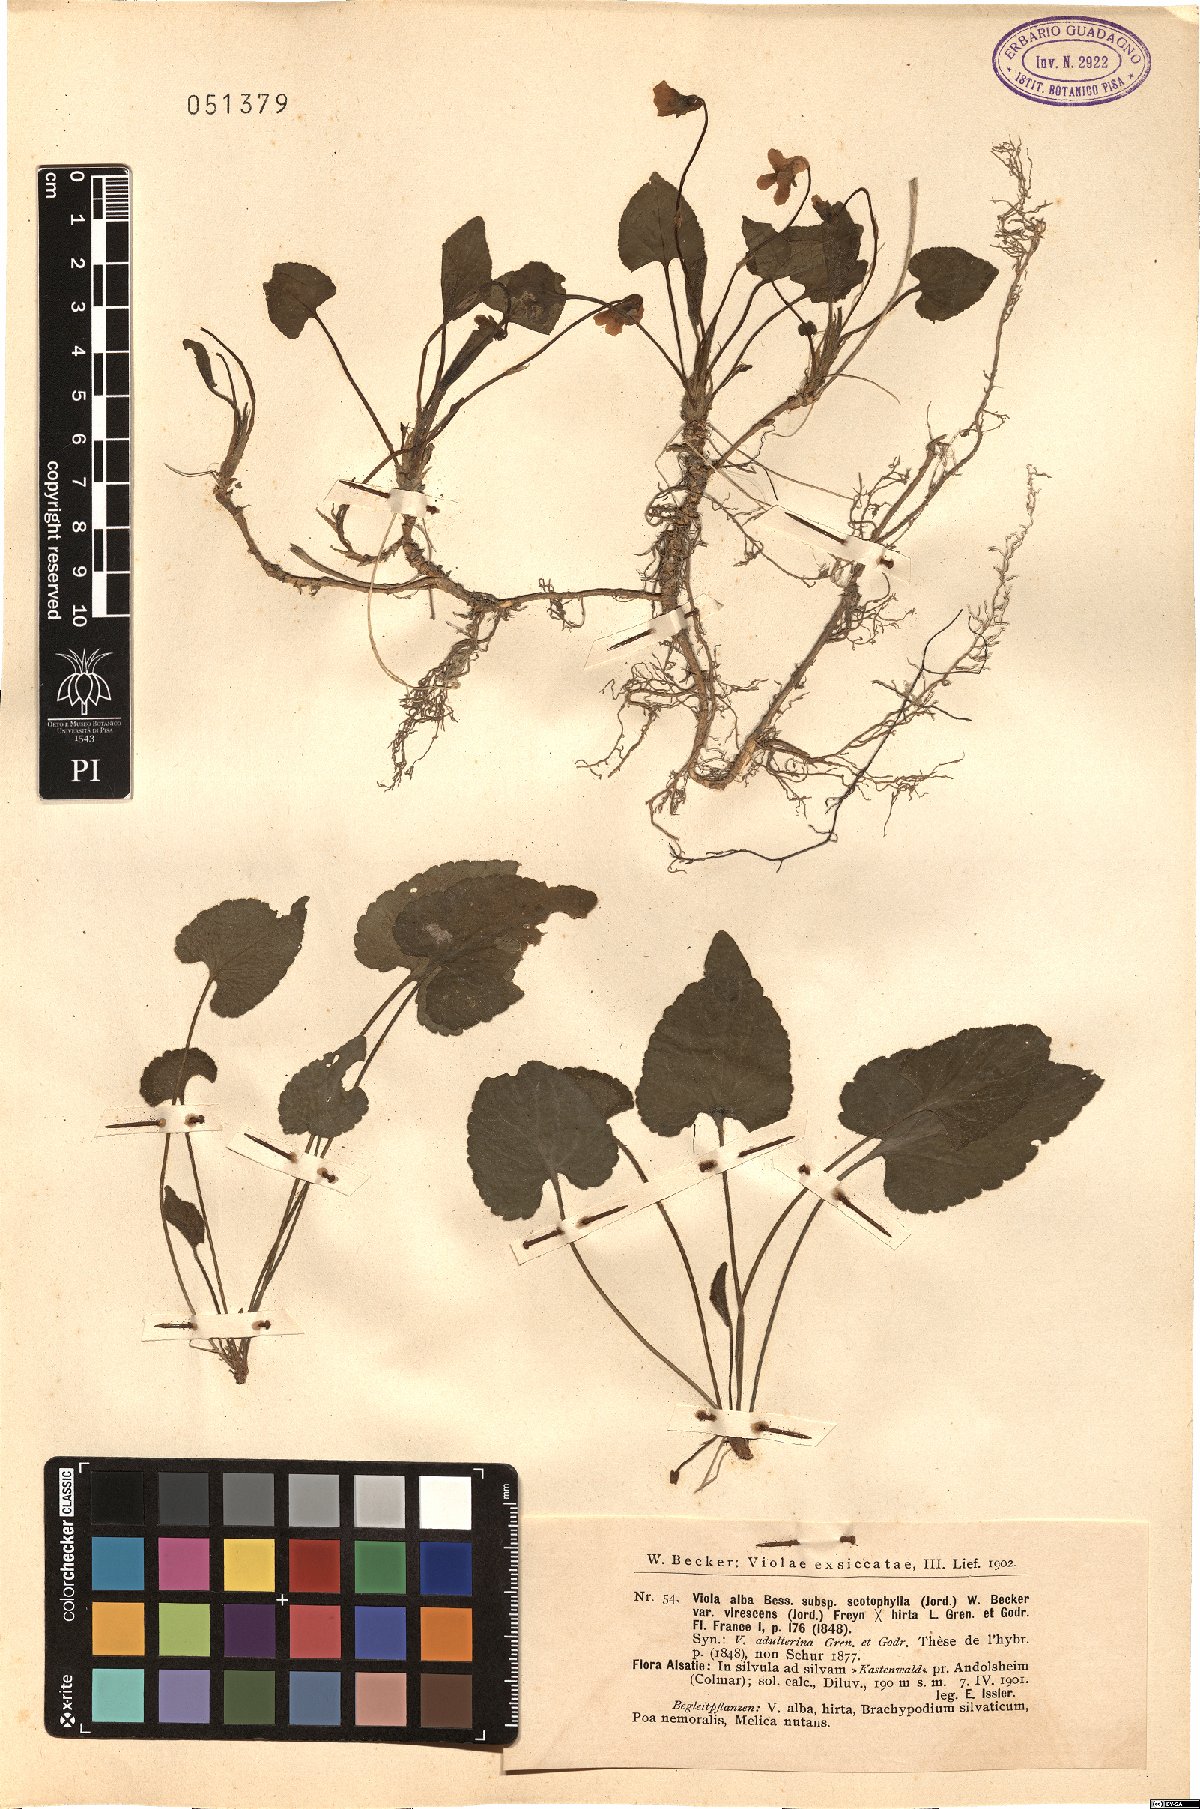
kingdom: Plantae
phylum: Tracheophyta
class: Magnoliopsida
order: Malpighiales
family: Violaceae
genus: Viola
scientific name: Viola alba
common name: White violet
